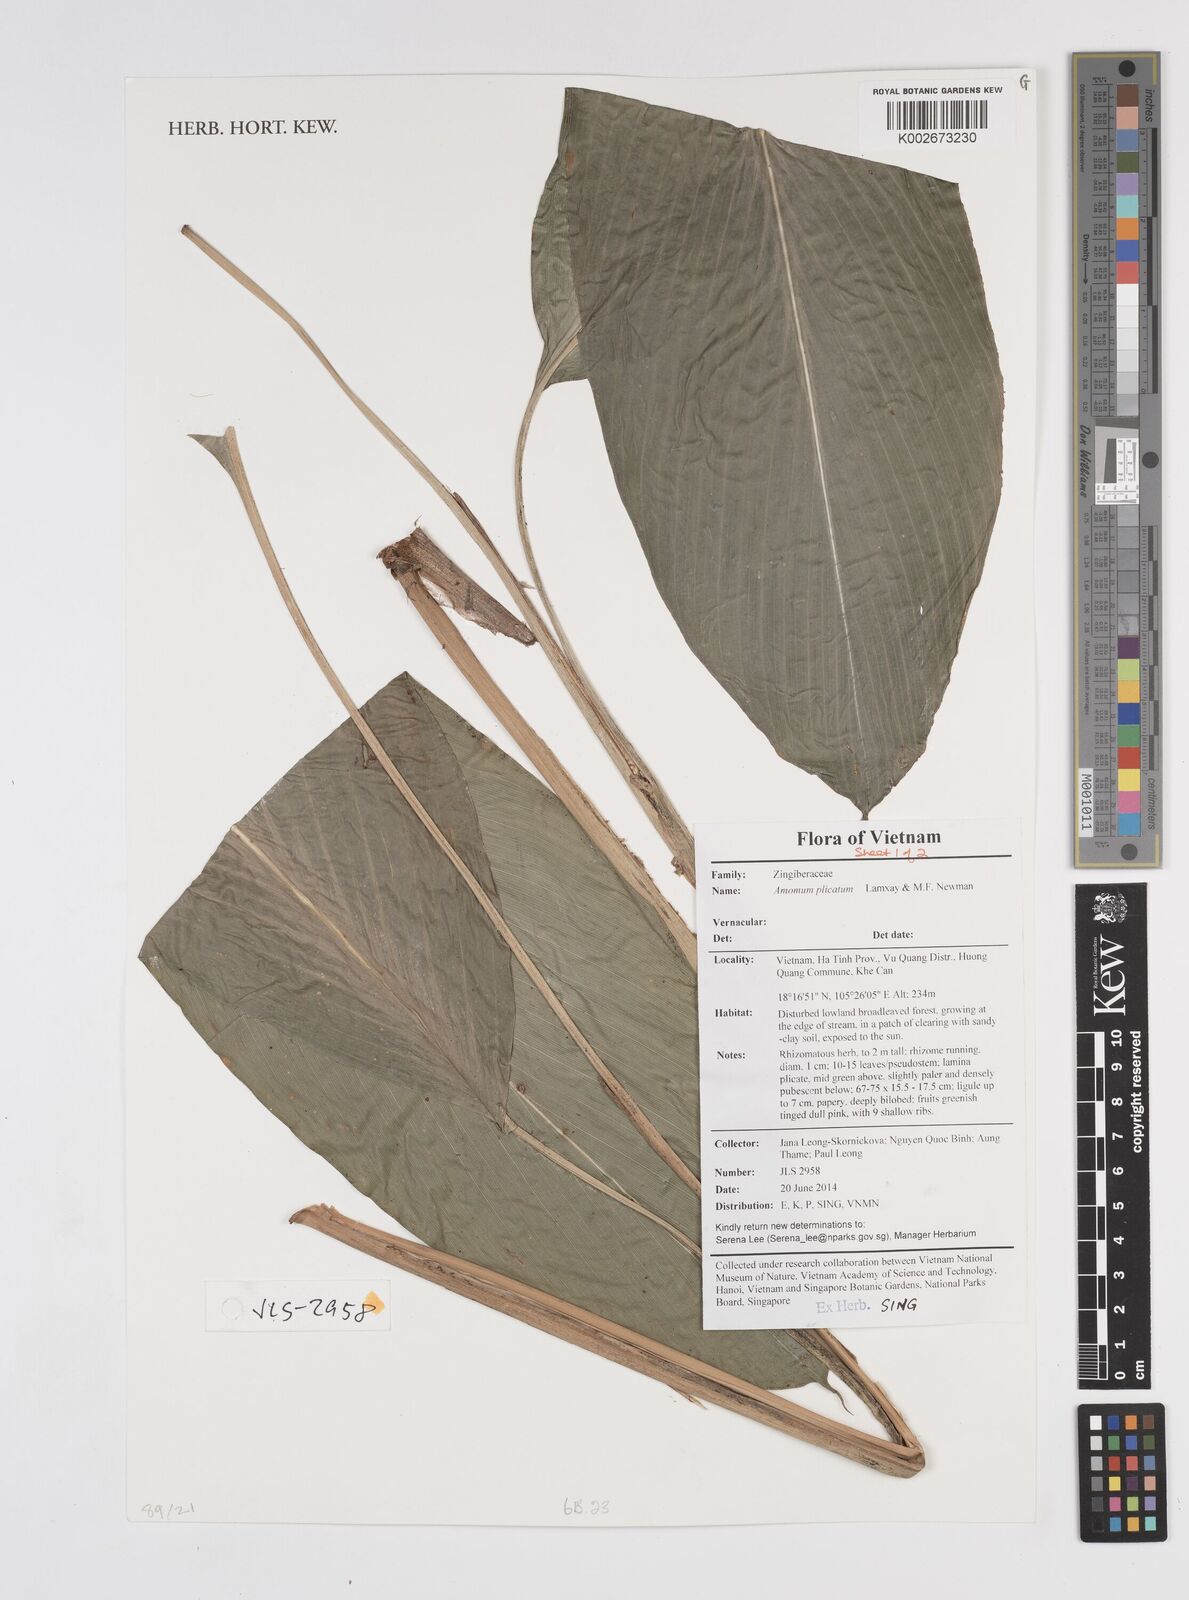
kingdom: Plantae
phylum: Tracheophyta
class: Liliopsida
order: Zingiberales
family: Zingiberaceae
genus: Amomum
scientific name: Amomum plicatum
